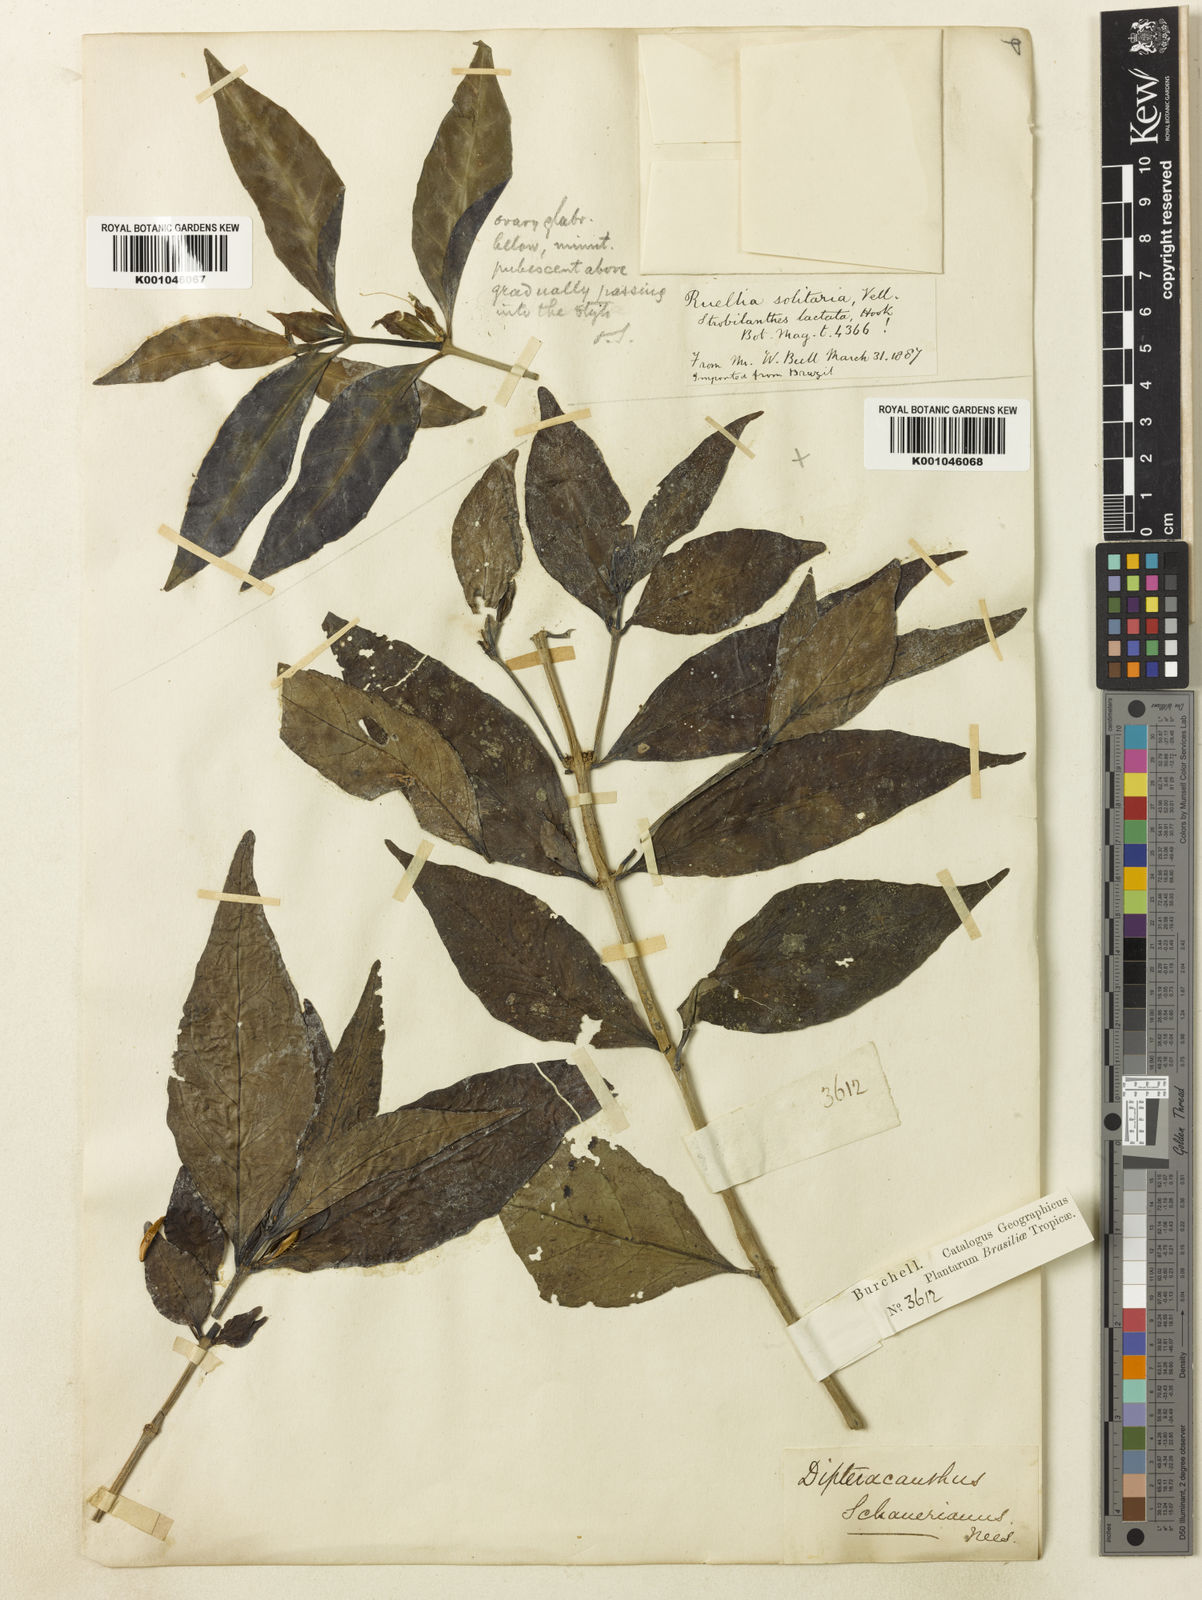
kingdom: Plantae
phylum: Tracheophyta
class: Magnoliopsida
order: Lamiales
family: Acanthaceae
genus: Ruellia
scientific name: Ruellia lactea
